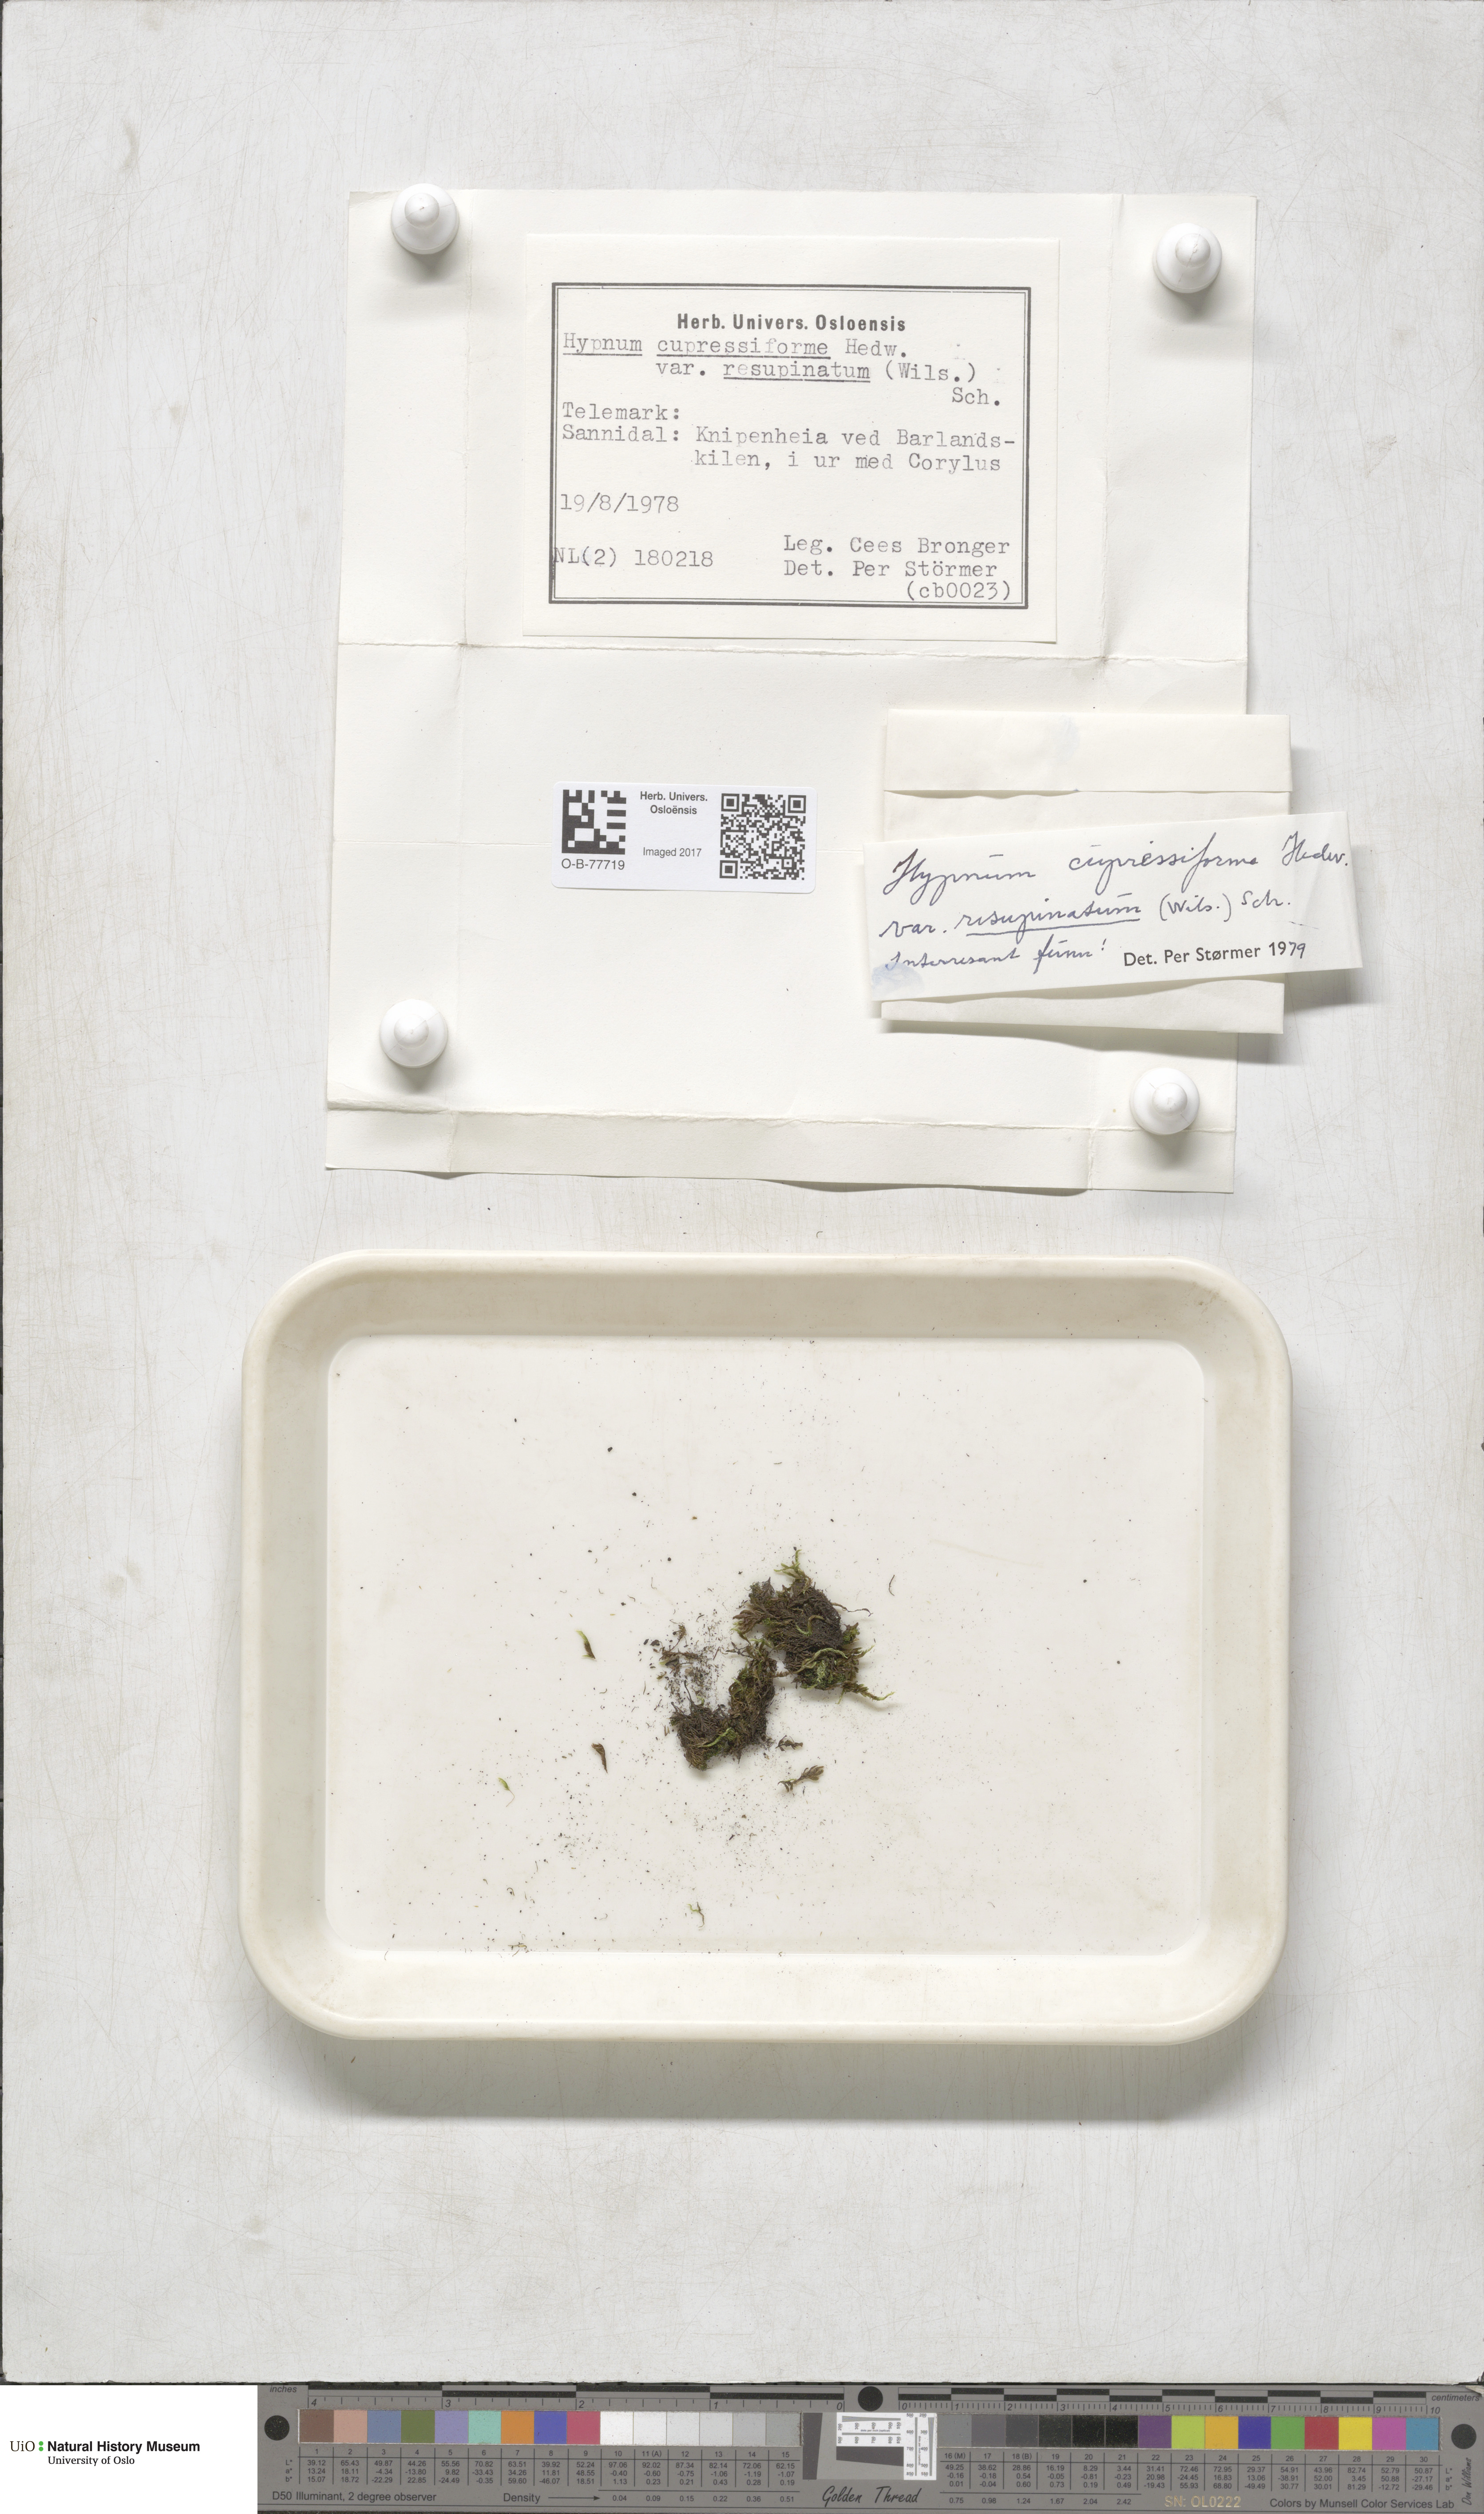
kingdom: Plantae
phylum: Bryophyta
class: Bryopsida
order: Hypnales
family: Hypnaceae
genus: Hypnum
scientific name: Hypnum cupressiforme
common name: Cypress-leaved plait-moss
